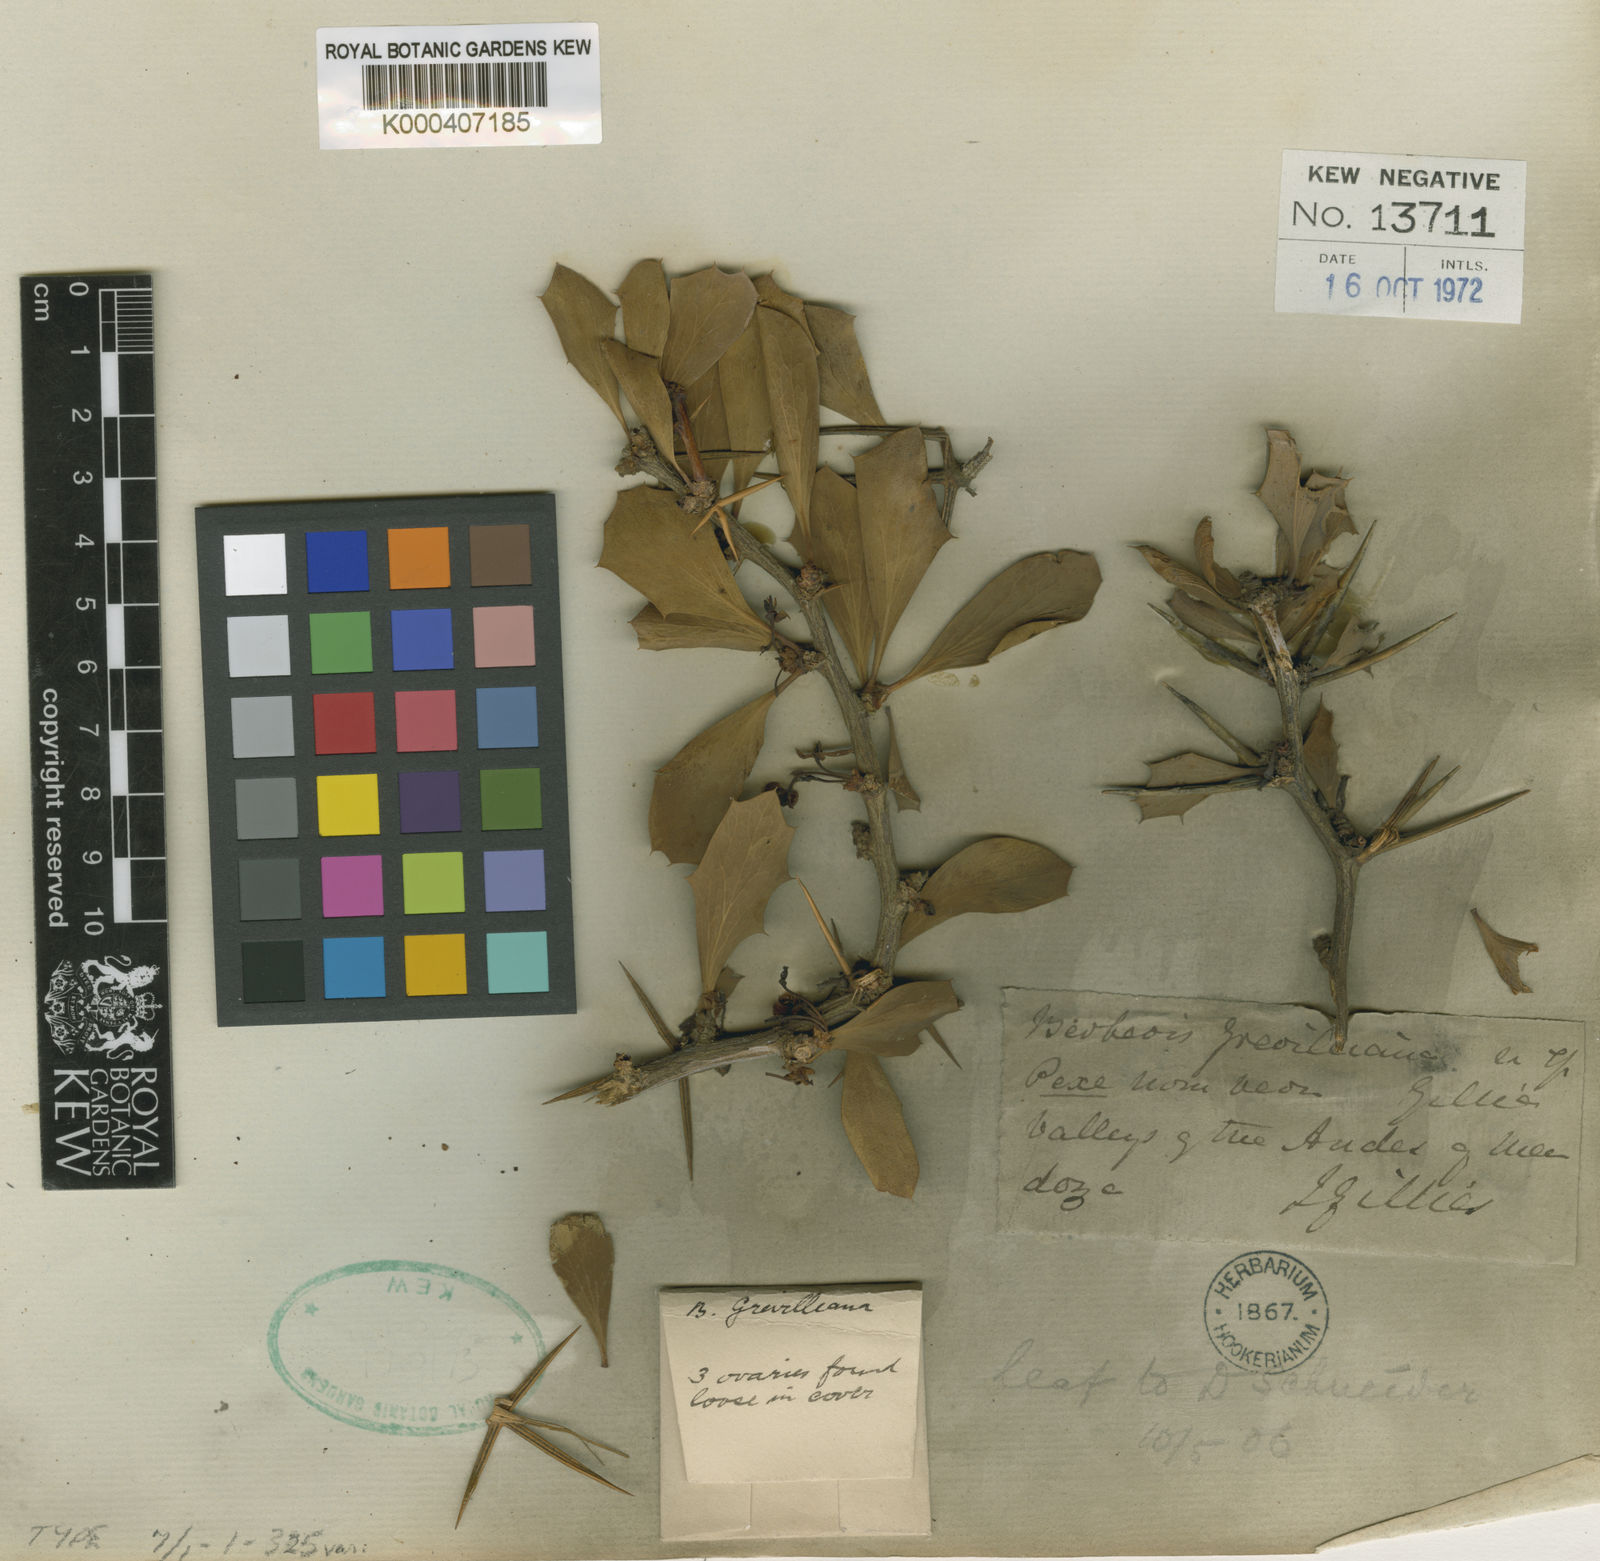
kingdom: Plantae
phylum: Tracheophyta
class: Magnoliopsida
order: Ranunculales
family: Berberidaceae
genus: Berberis
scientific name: Berberis grevilleana
